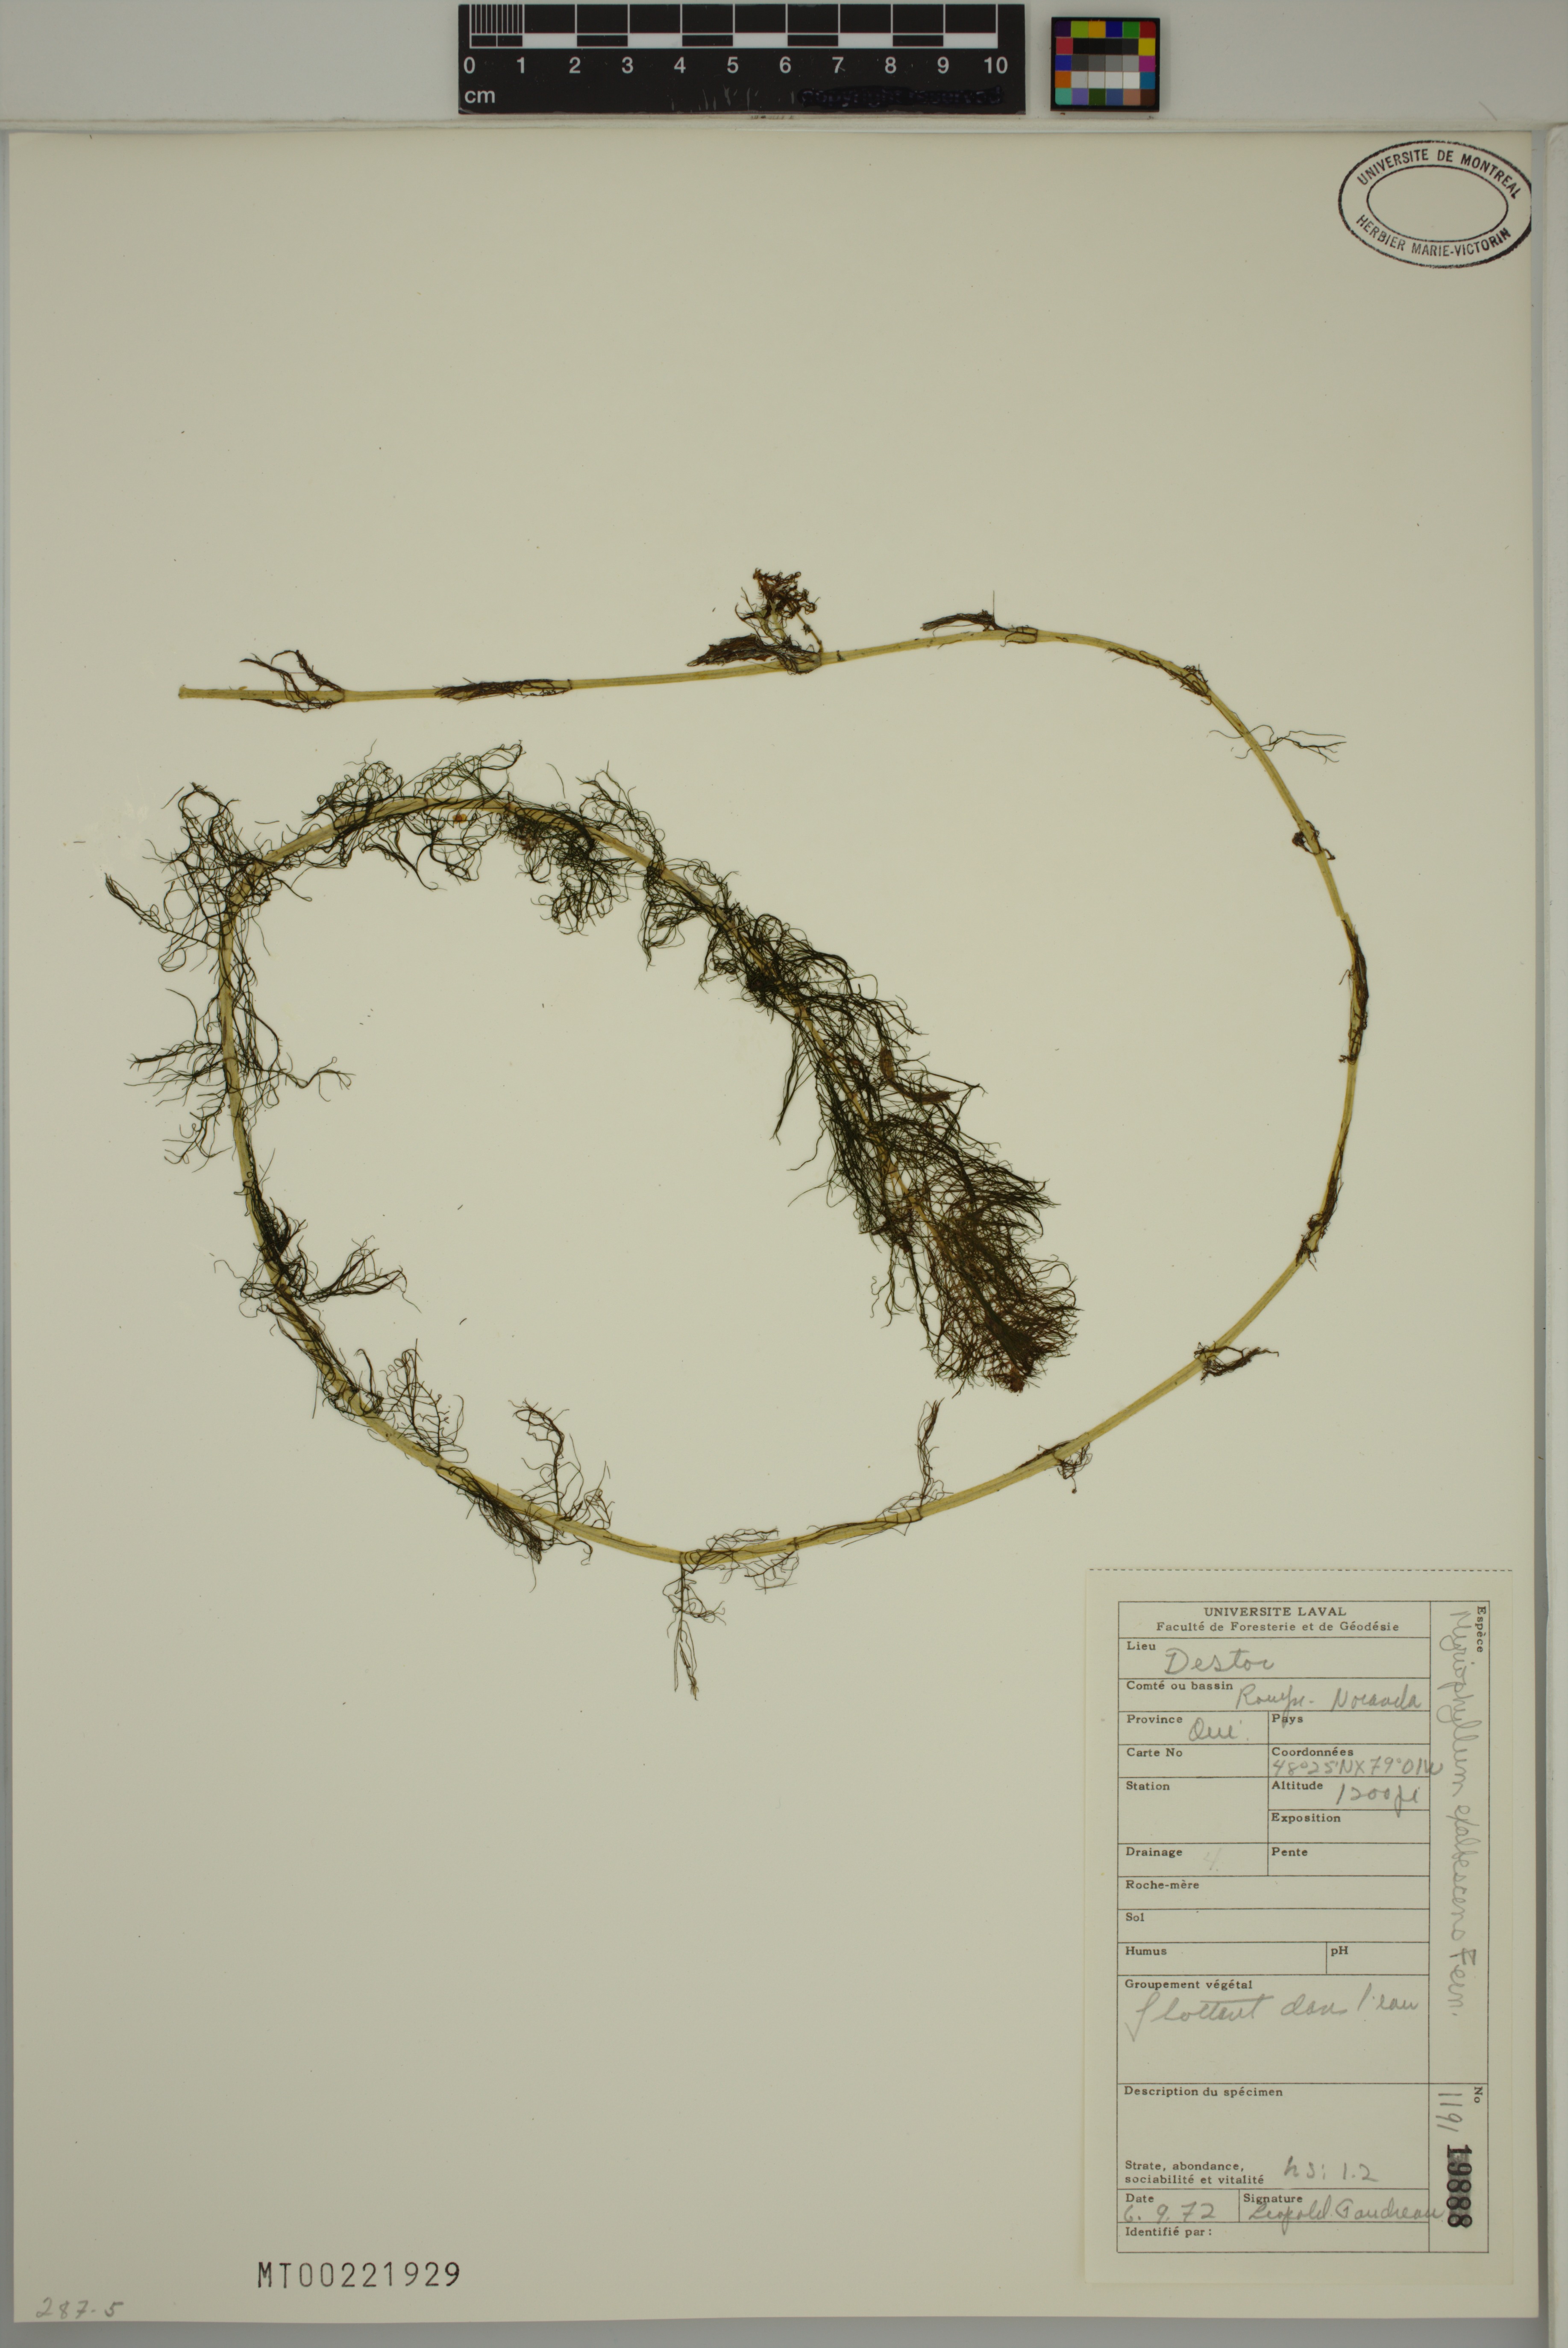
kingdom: Plantae
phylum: Tracheophyta
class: Magnoliopsida
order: Saxifragales
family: Haloragaceae
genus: Myriophyllum
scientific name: Myriophyllum sibiricum
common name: Siberian water-milfoil
